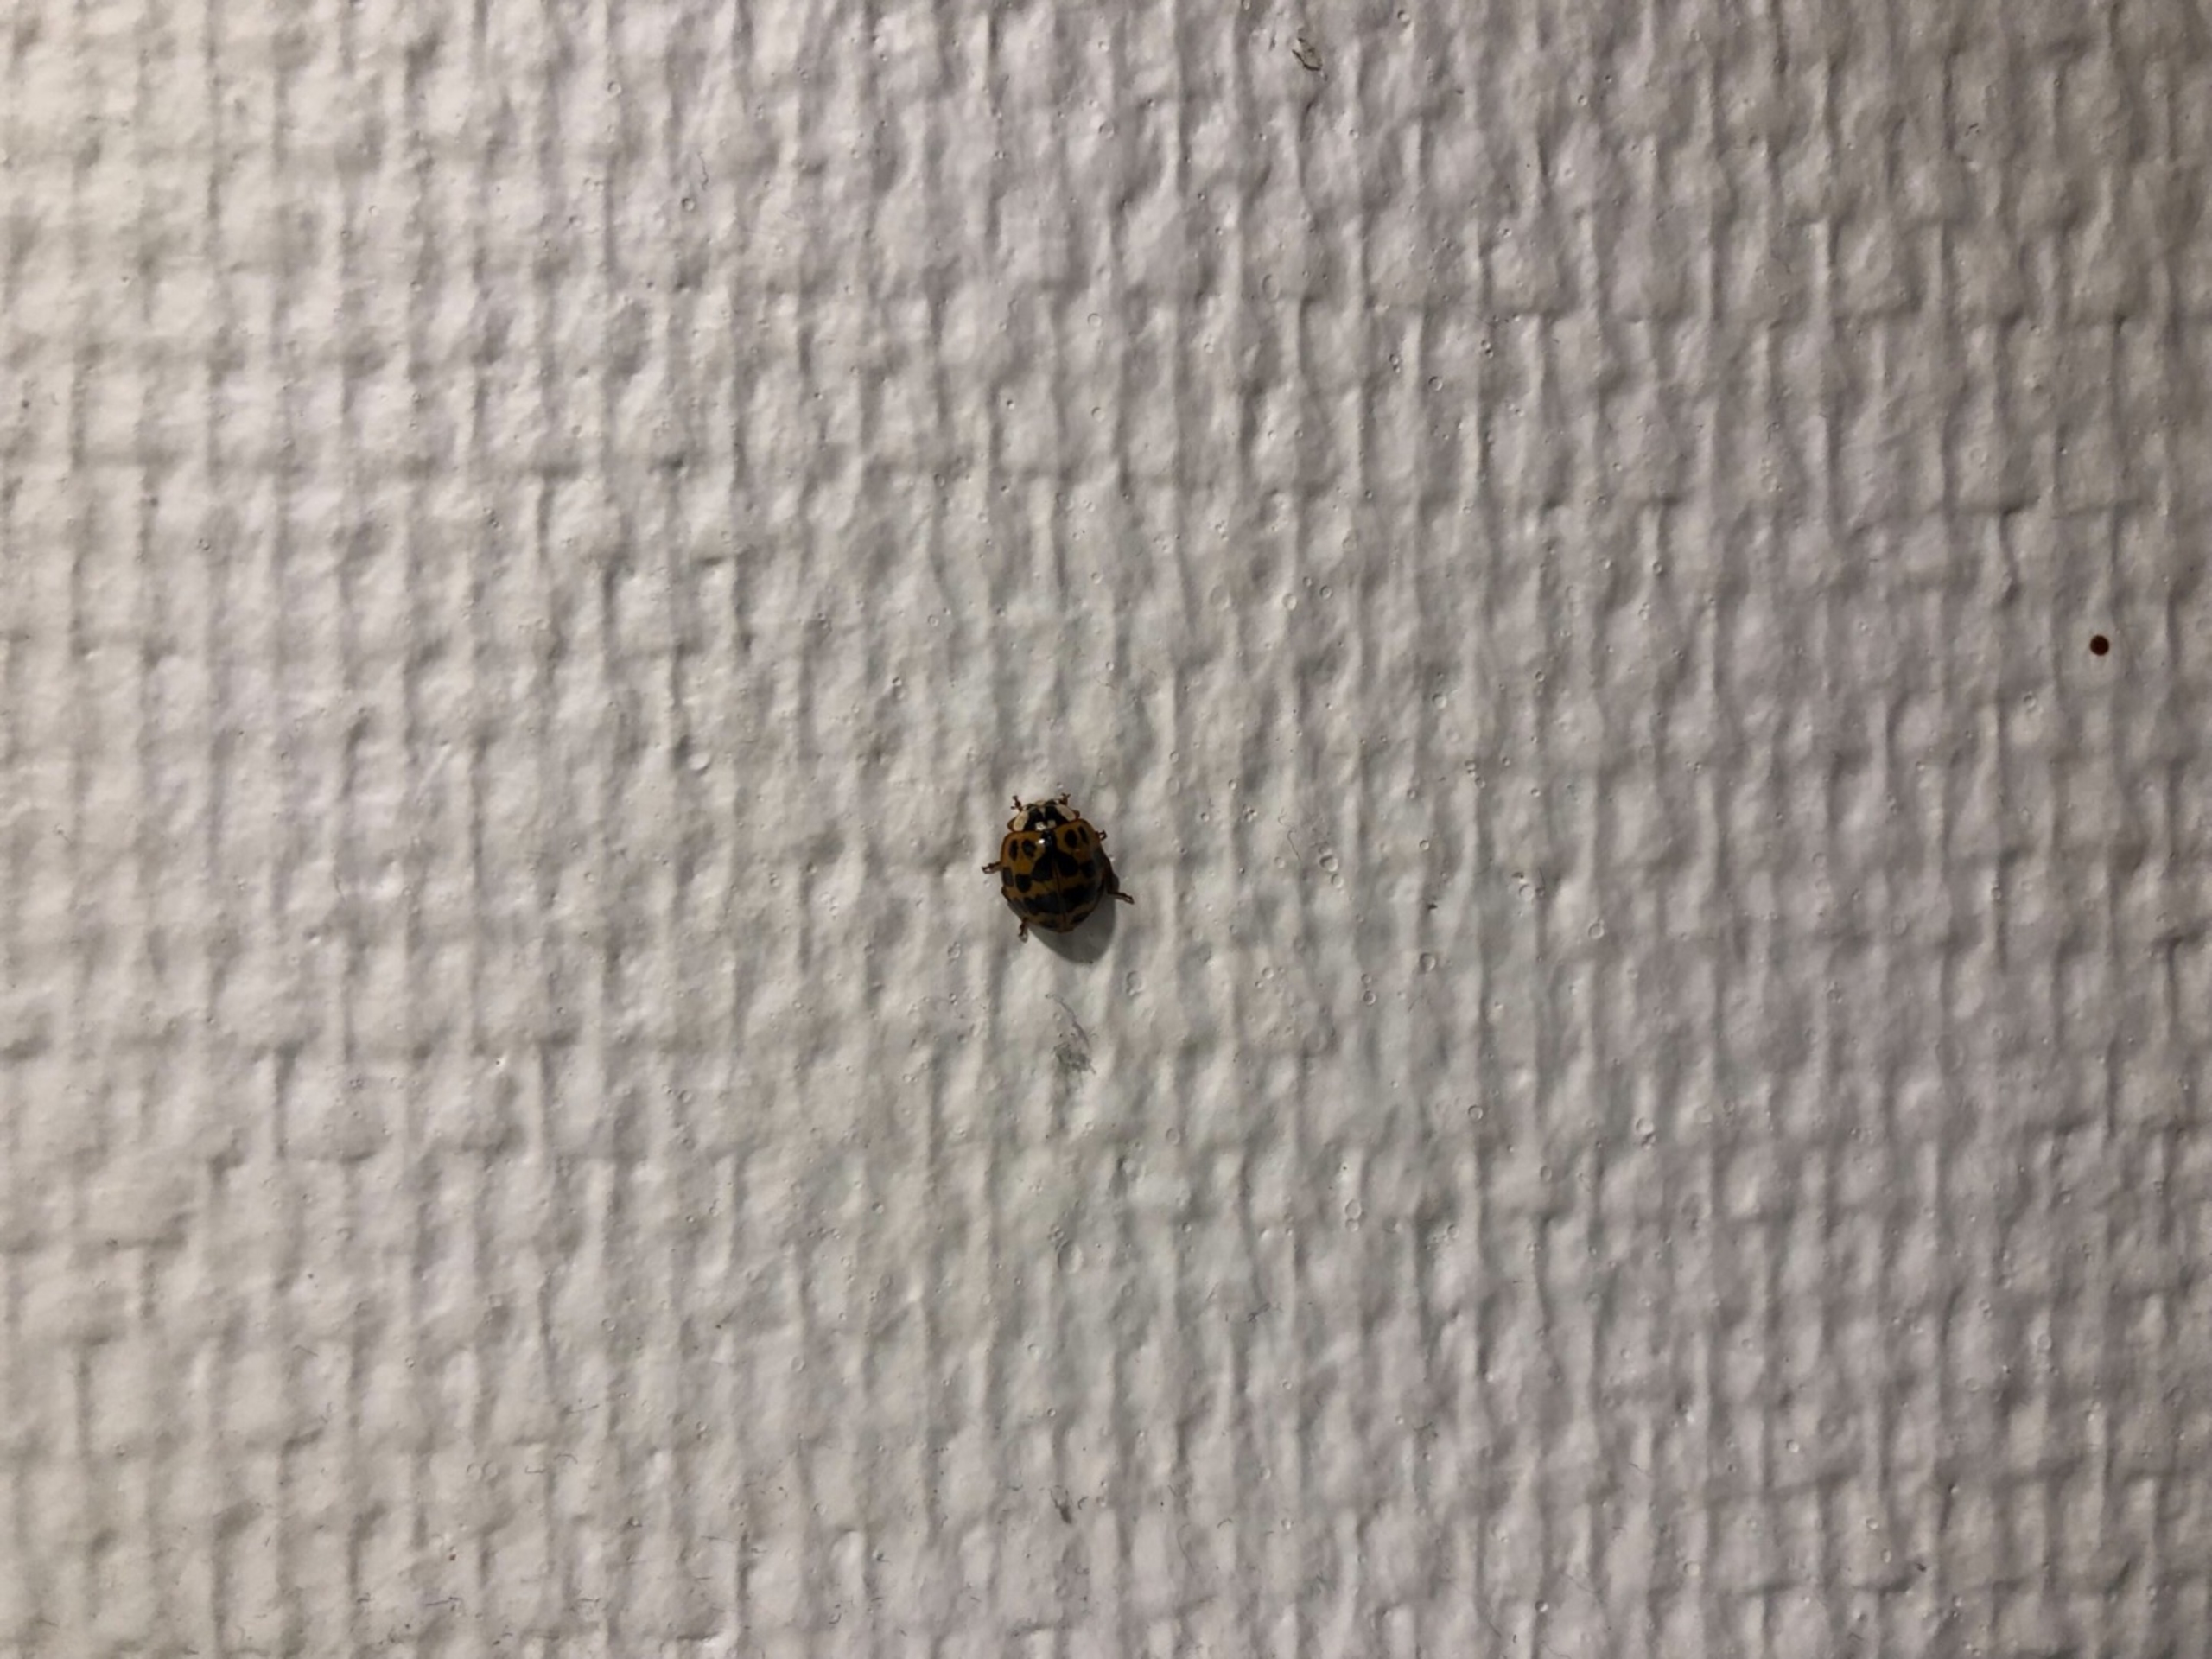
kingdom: Animalia
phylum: Arthropoda
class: Insecta
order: Coleoptera
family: Coccinellidae
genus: Harmonia
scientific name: Harmonia axyridis
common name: Harlekinmariehøne
